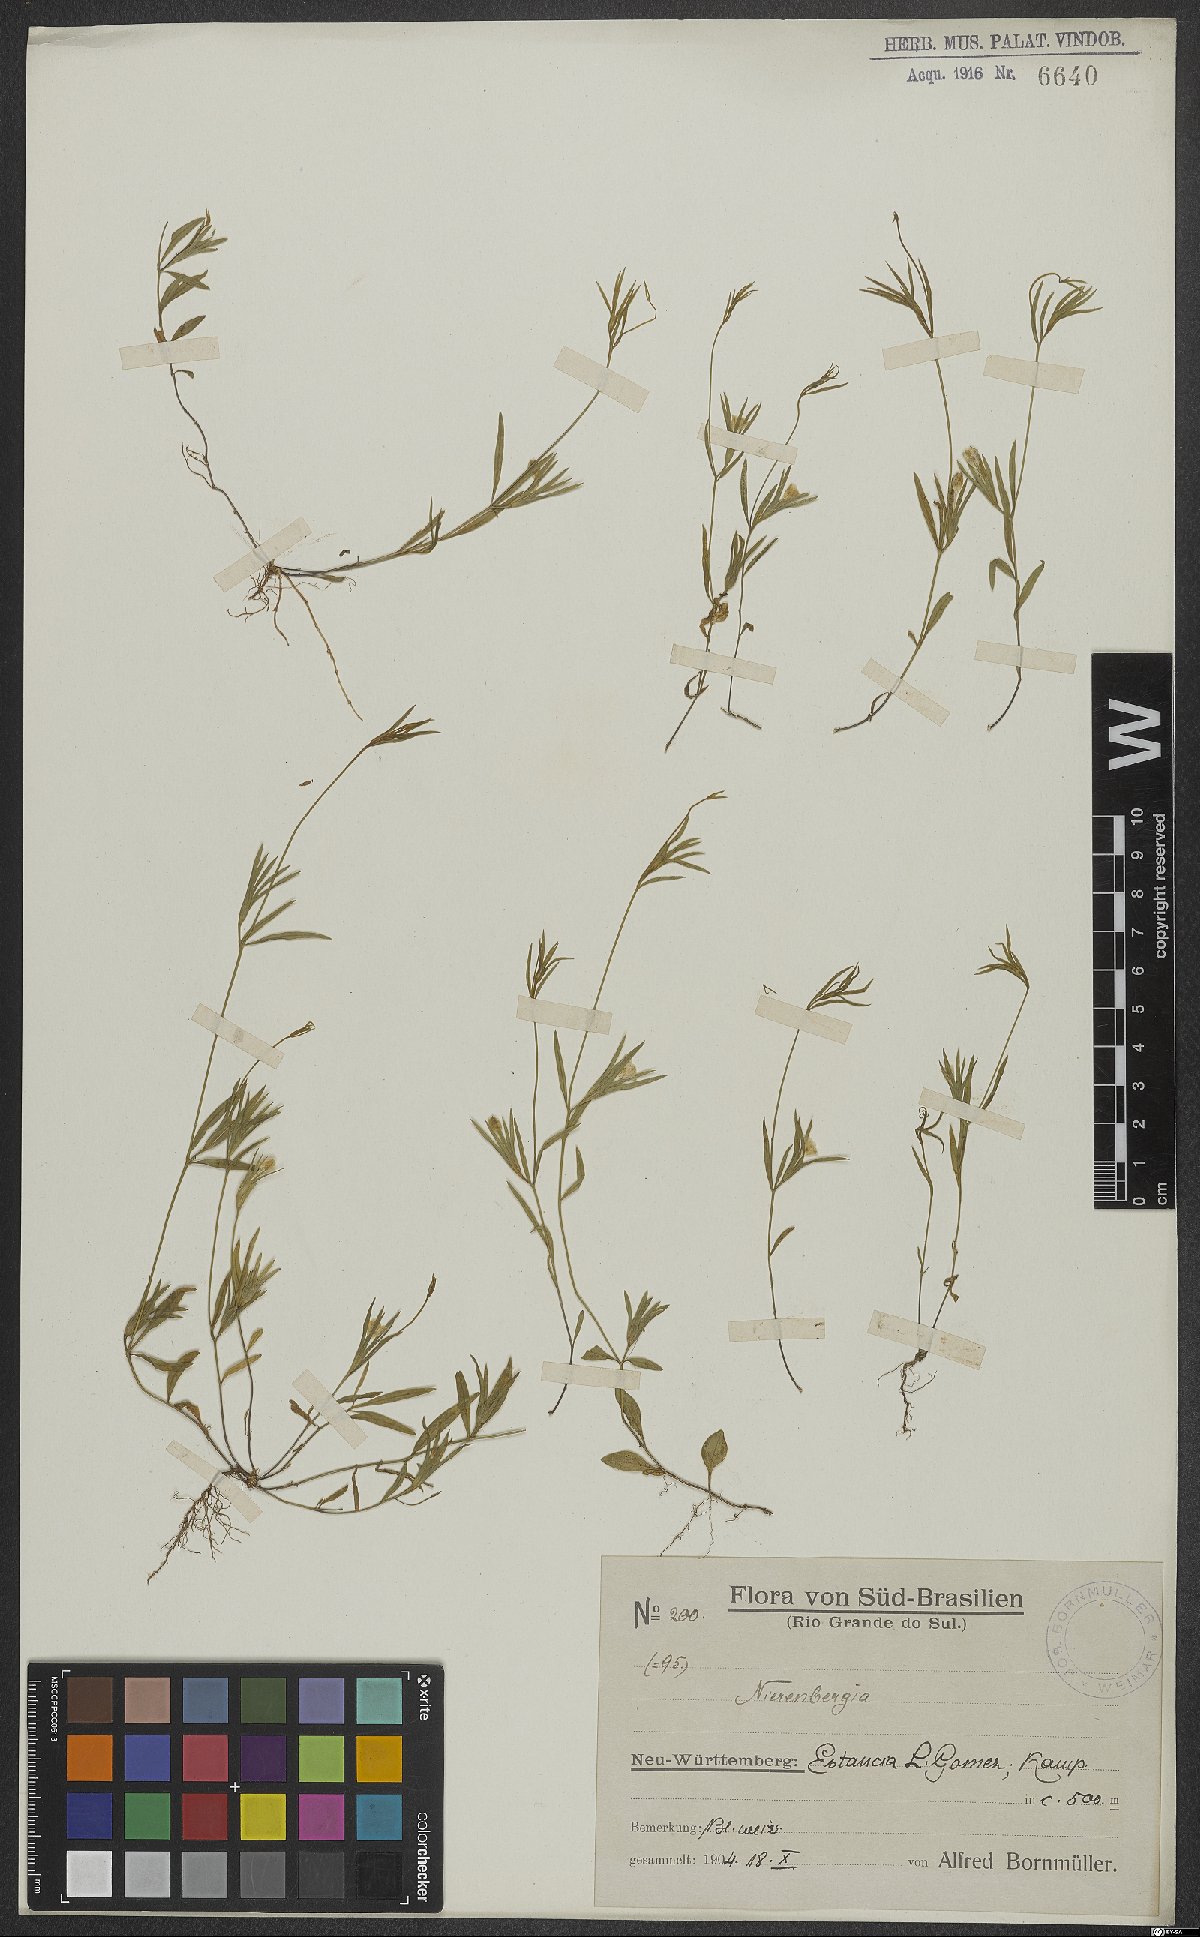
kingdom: Plantae
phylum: Tracheophyta
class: Magnoliopsida
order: Solanales
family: Solanaceae
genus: Nierembergia
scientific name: Nierembergia
